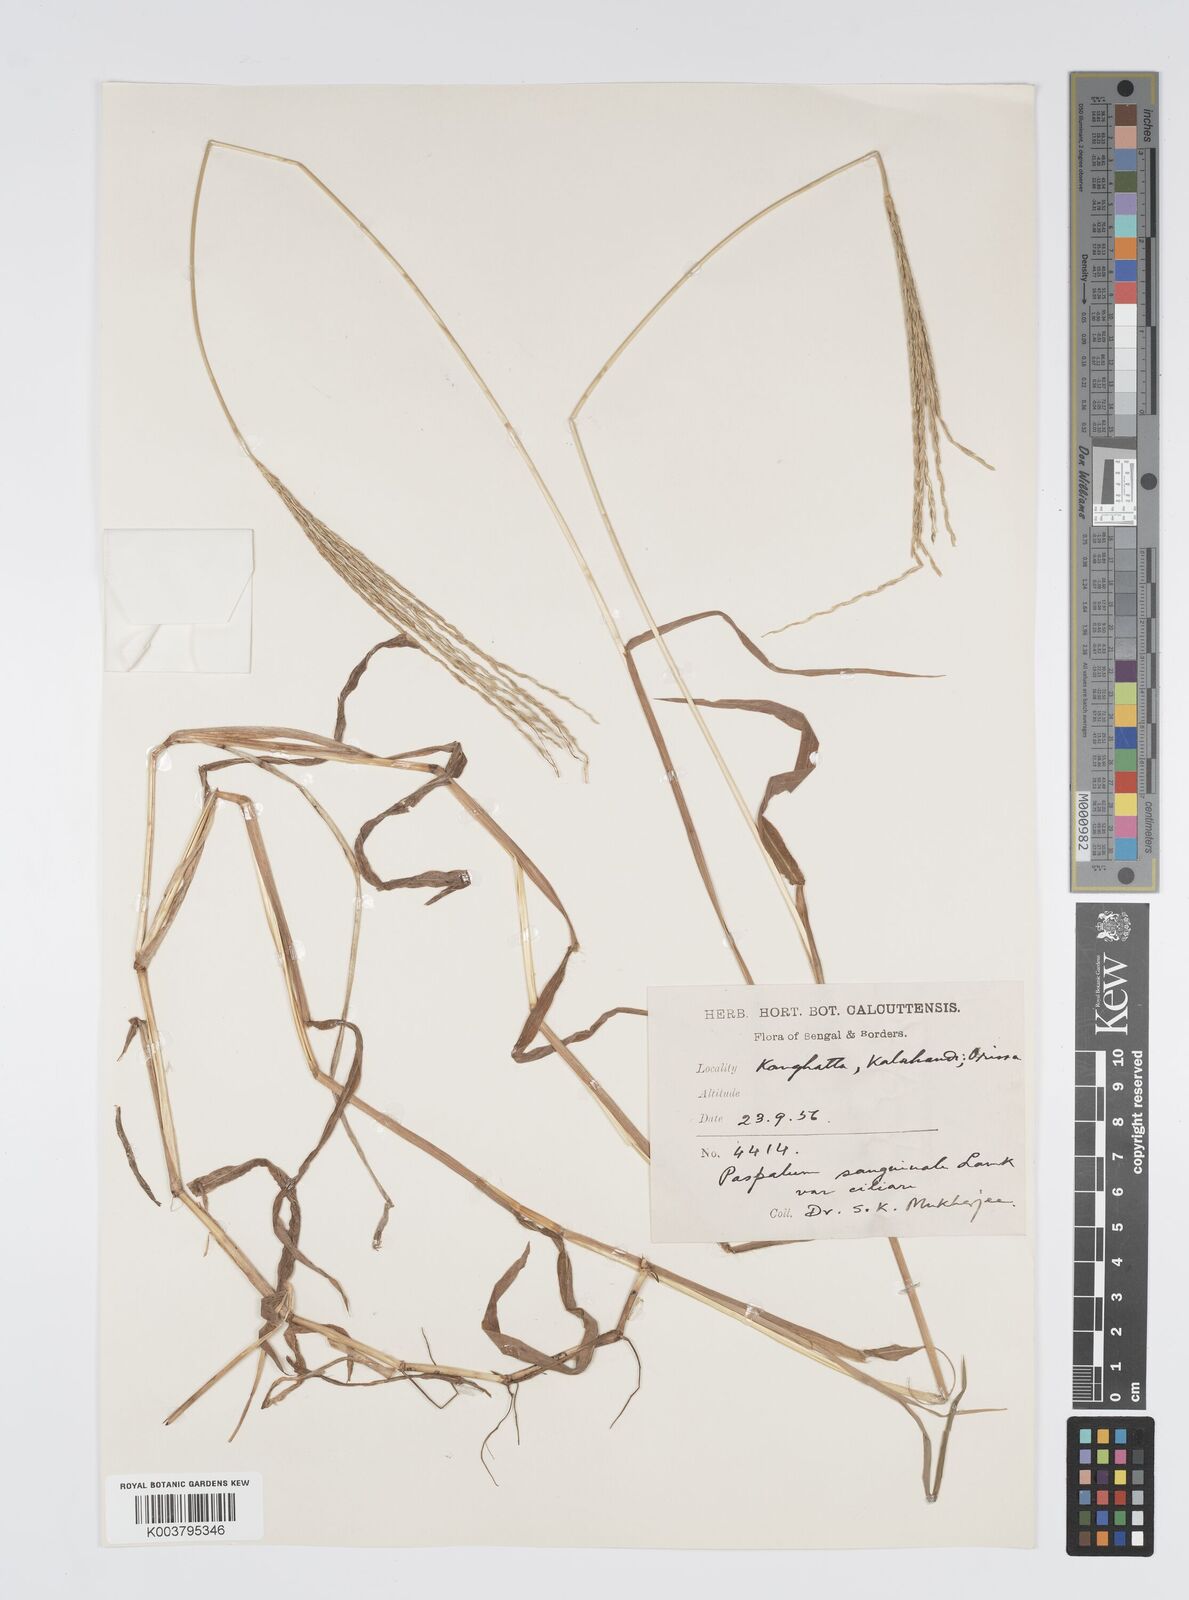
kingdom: Plantae
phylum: Tracheophyta
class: Liliopsida
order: Poales
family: Poaceae
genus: Digitaria
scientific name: Digitaria ciliaris
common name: Tropical finger-grass
